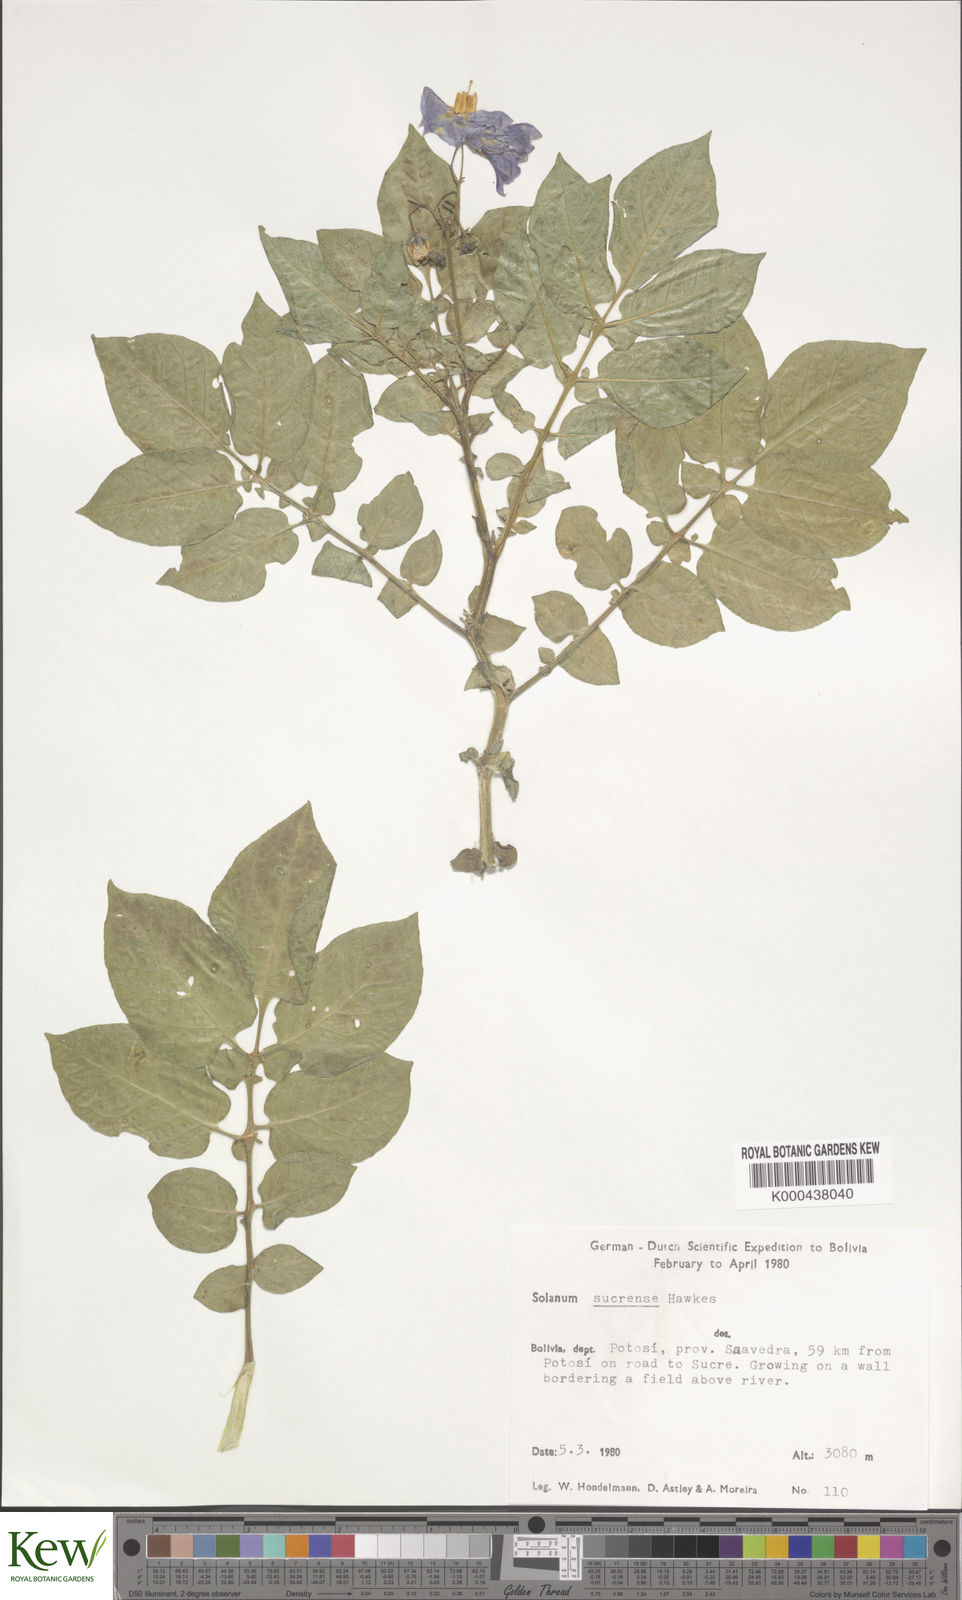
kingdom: Plantae
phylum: Tracheophyta
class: Magnoliopsida
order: Solanales
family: Solanaceae
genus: Solanum
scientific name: Solanum brevicaule
